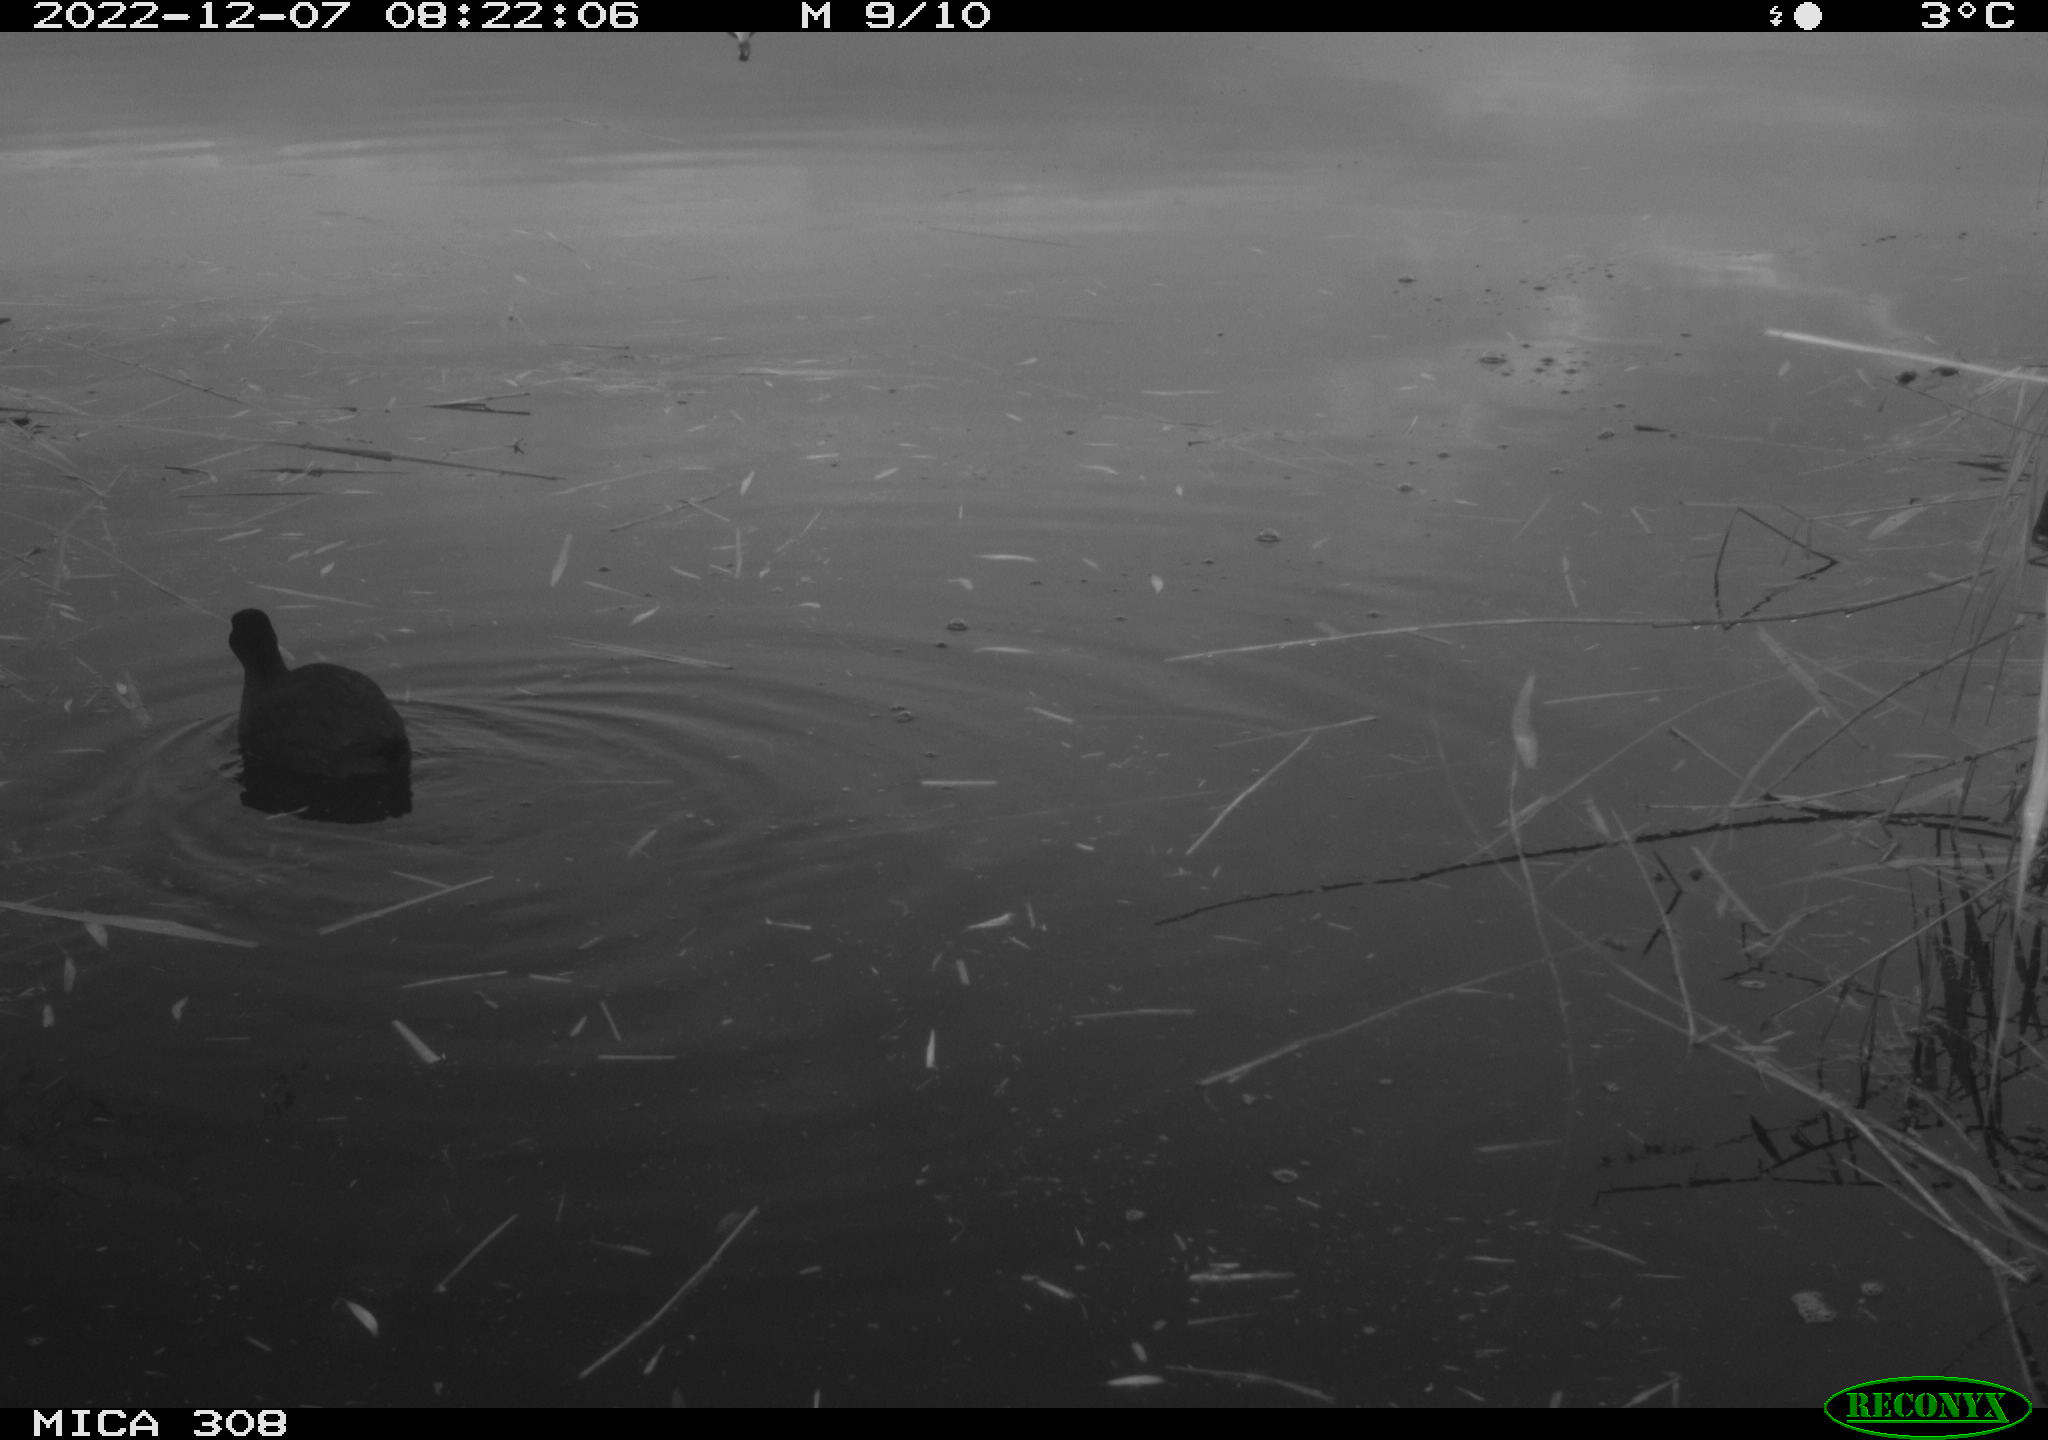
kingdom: Animalia
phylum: Chordata
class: Aves
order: Gruiformes
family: Rallidae
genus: Gallinula
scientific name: Gallinula chloropus
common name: Common moorhen
